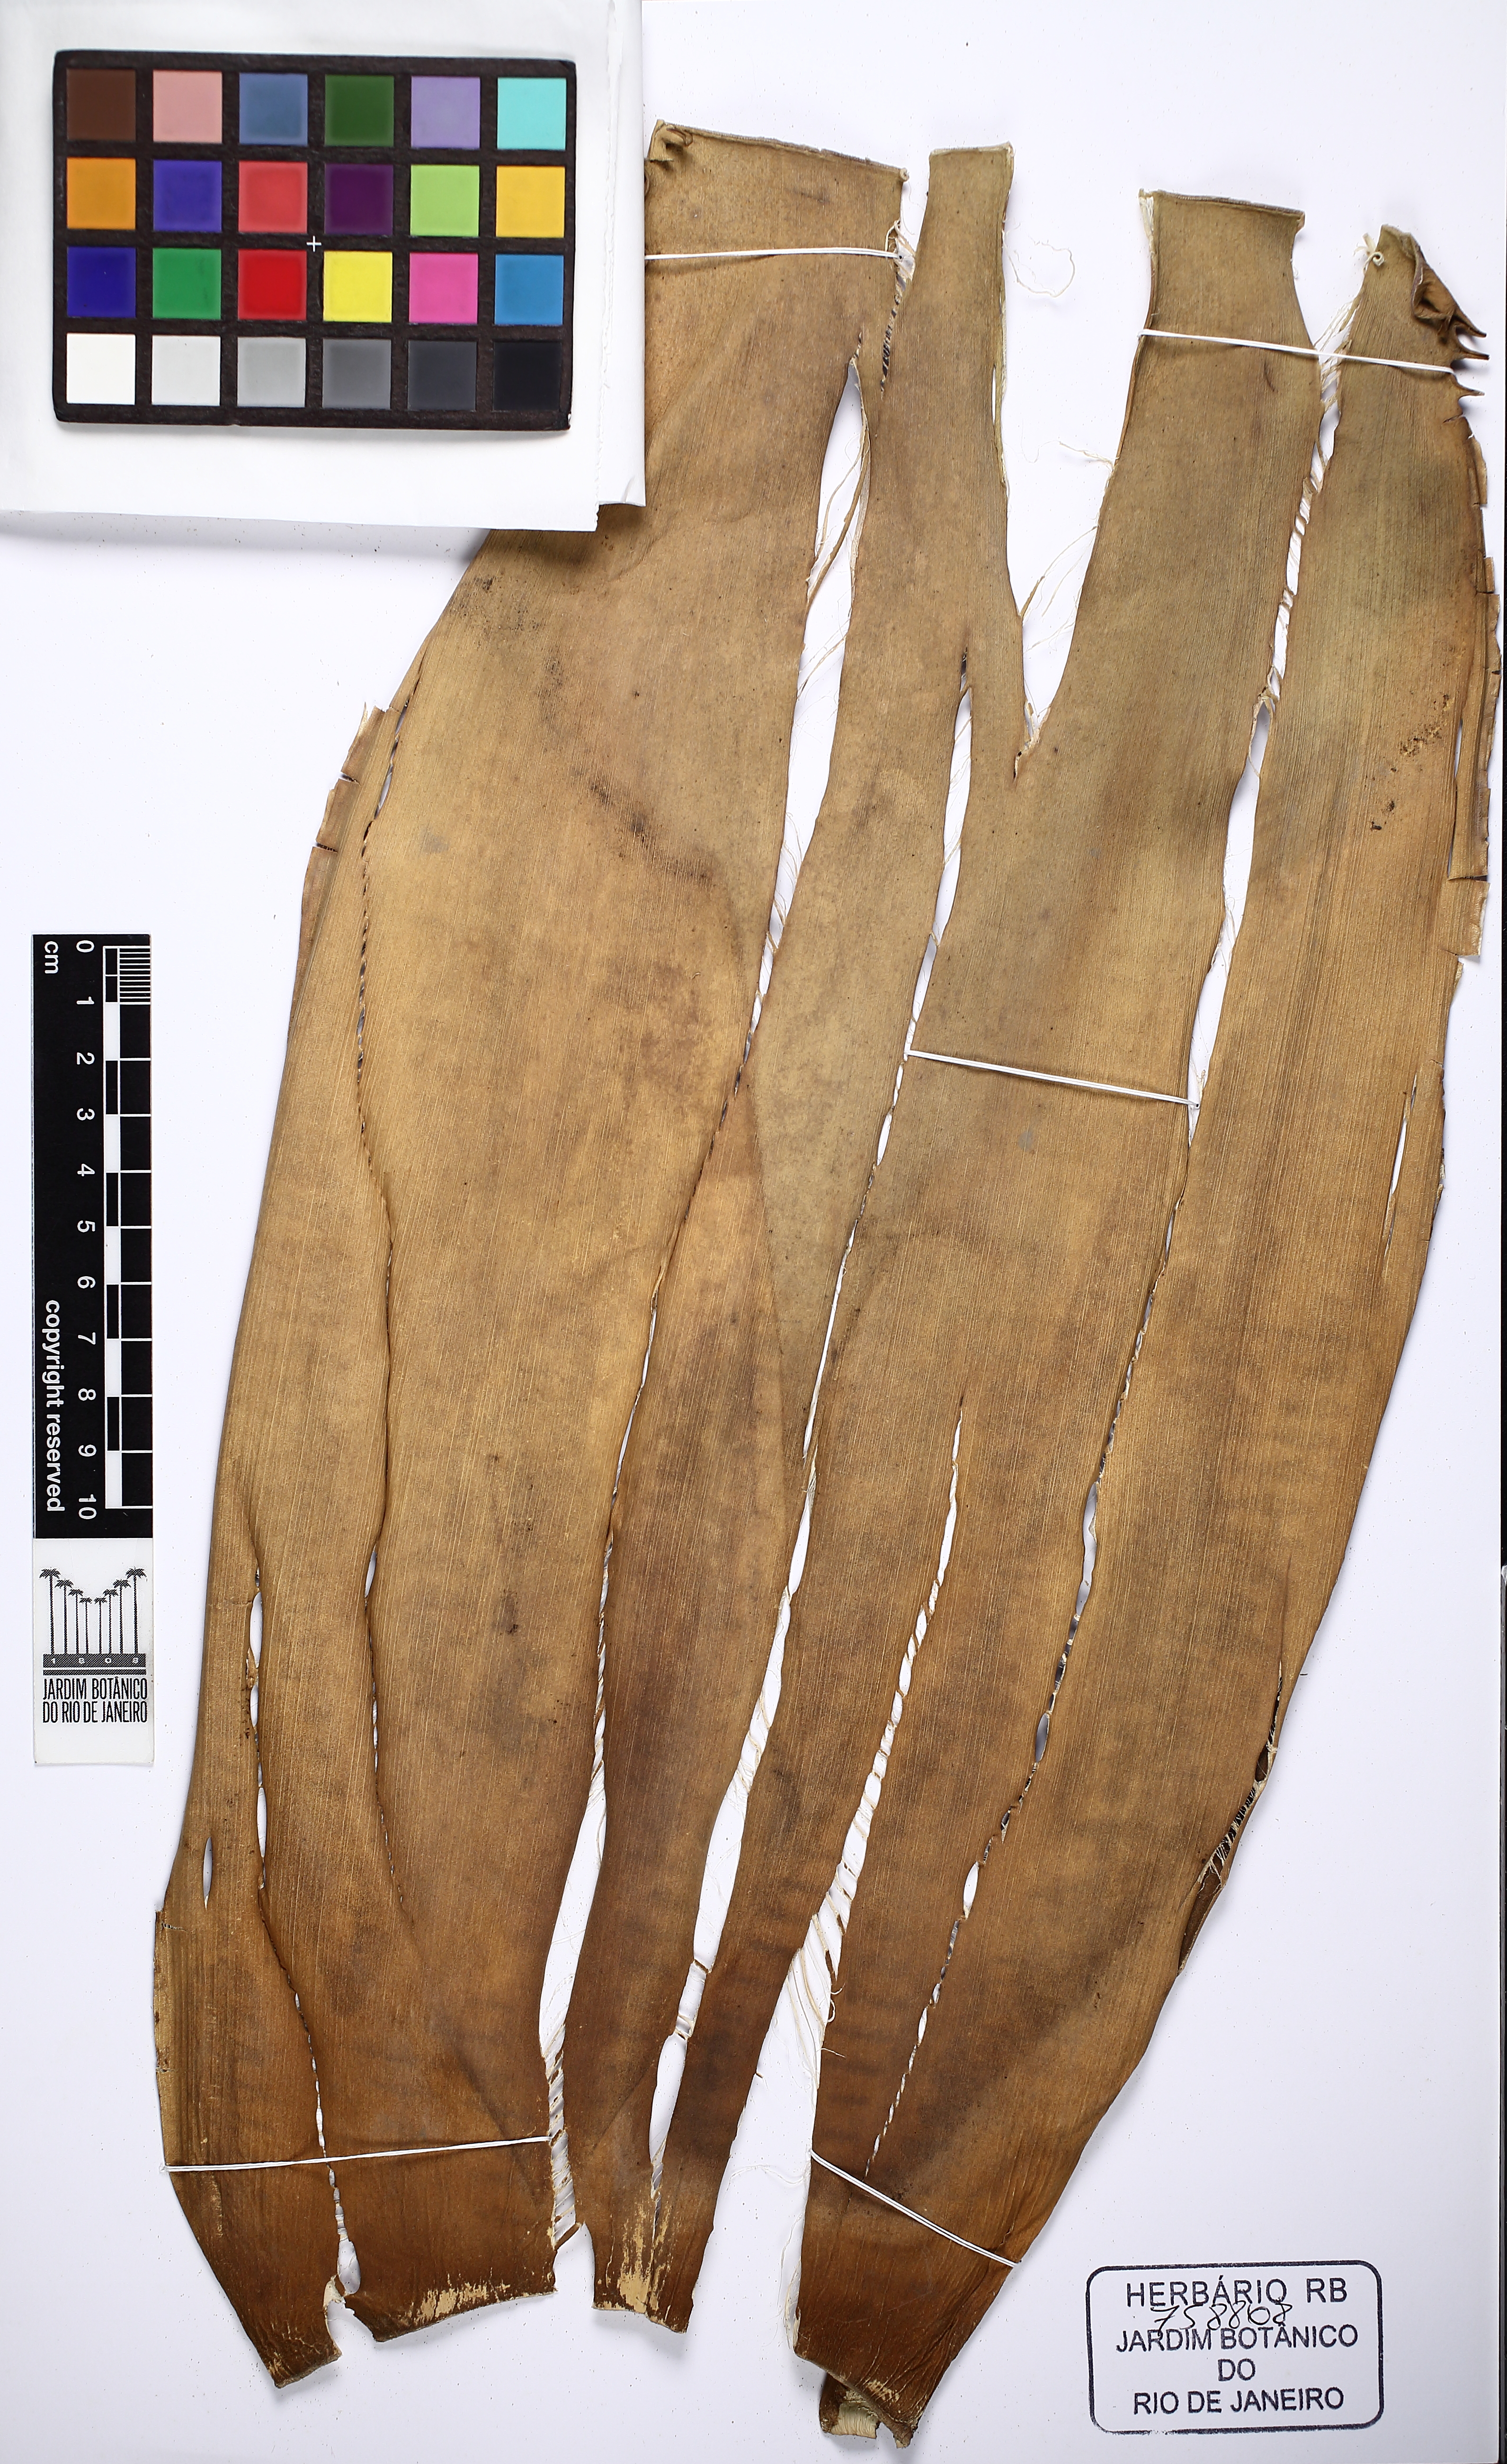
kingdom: Plantae
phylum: Tracheophyta
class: Liliopsida
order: Poales
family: Bromeliaceae
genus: Aechmea
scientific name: Aechmea tocantina
